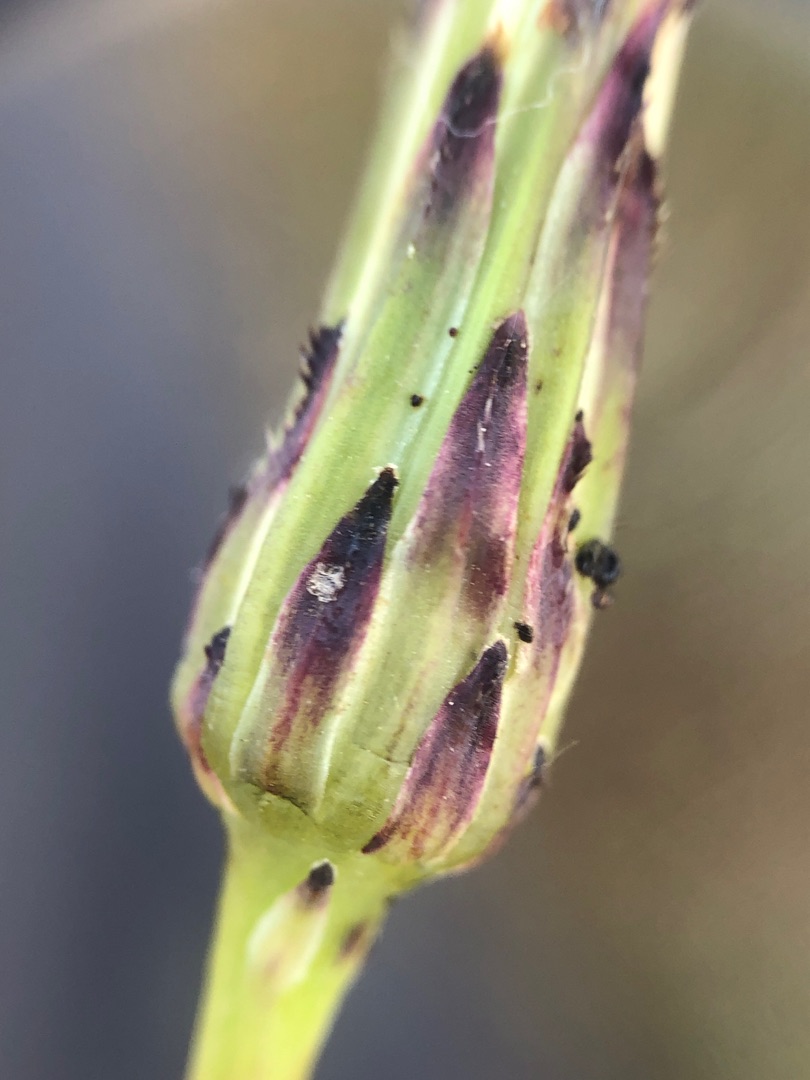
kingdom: Plantae
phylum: Tracheophyta
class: Magnoliopsida
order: Asterales
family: Asteraceae
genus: Hypochaeris
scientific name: Hypochaeris radicata
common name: Almindelig kongepen
